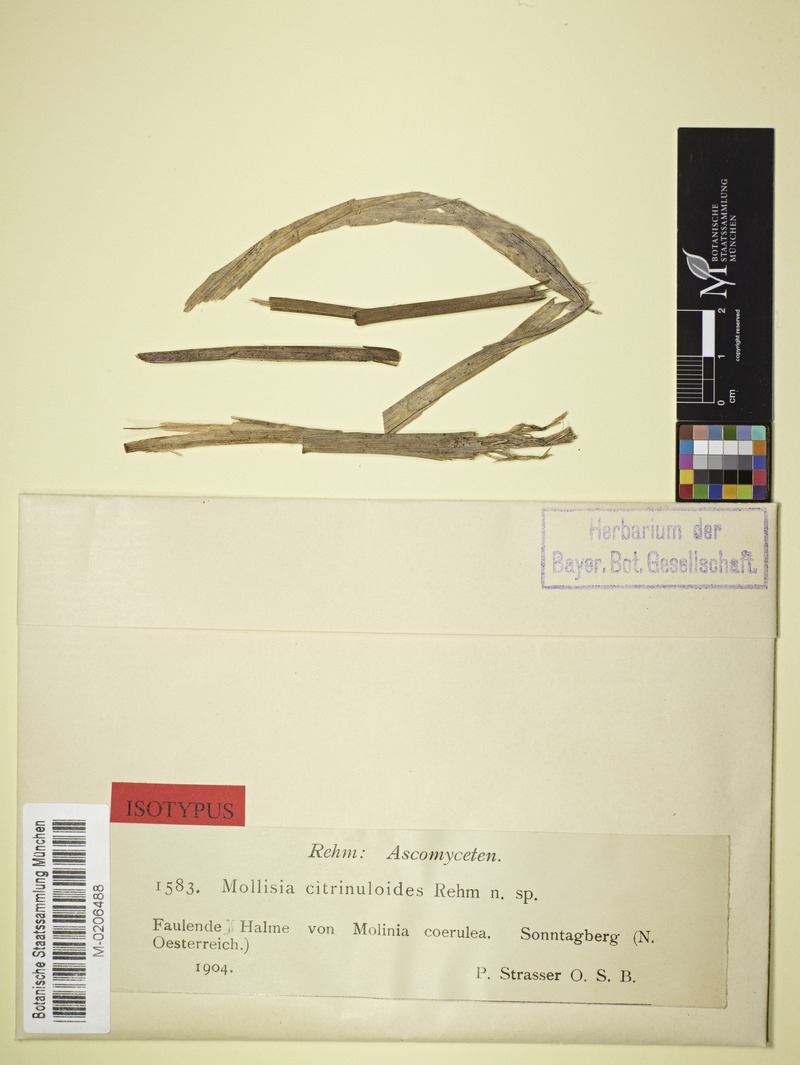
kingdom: Fungi
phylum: Ascomycota
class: Leotiomycetes
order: Helotiales
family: Mollisiaceae
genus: Mollisia
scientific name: Mollisia citrinuloides
